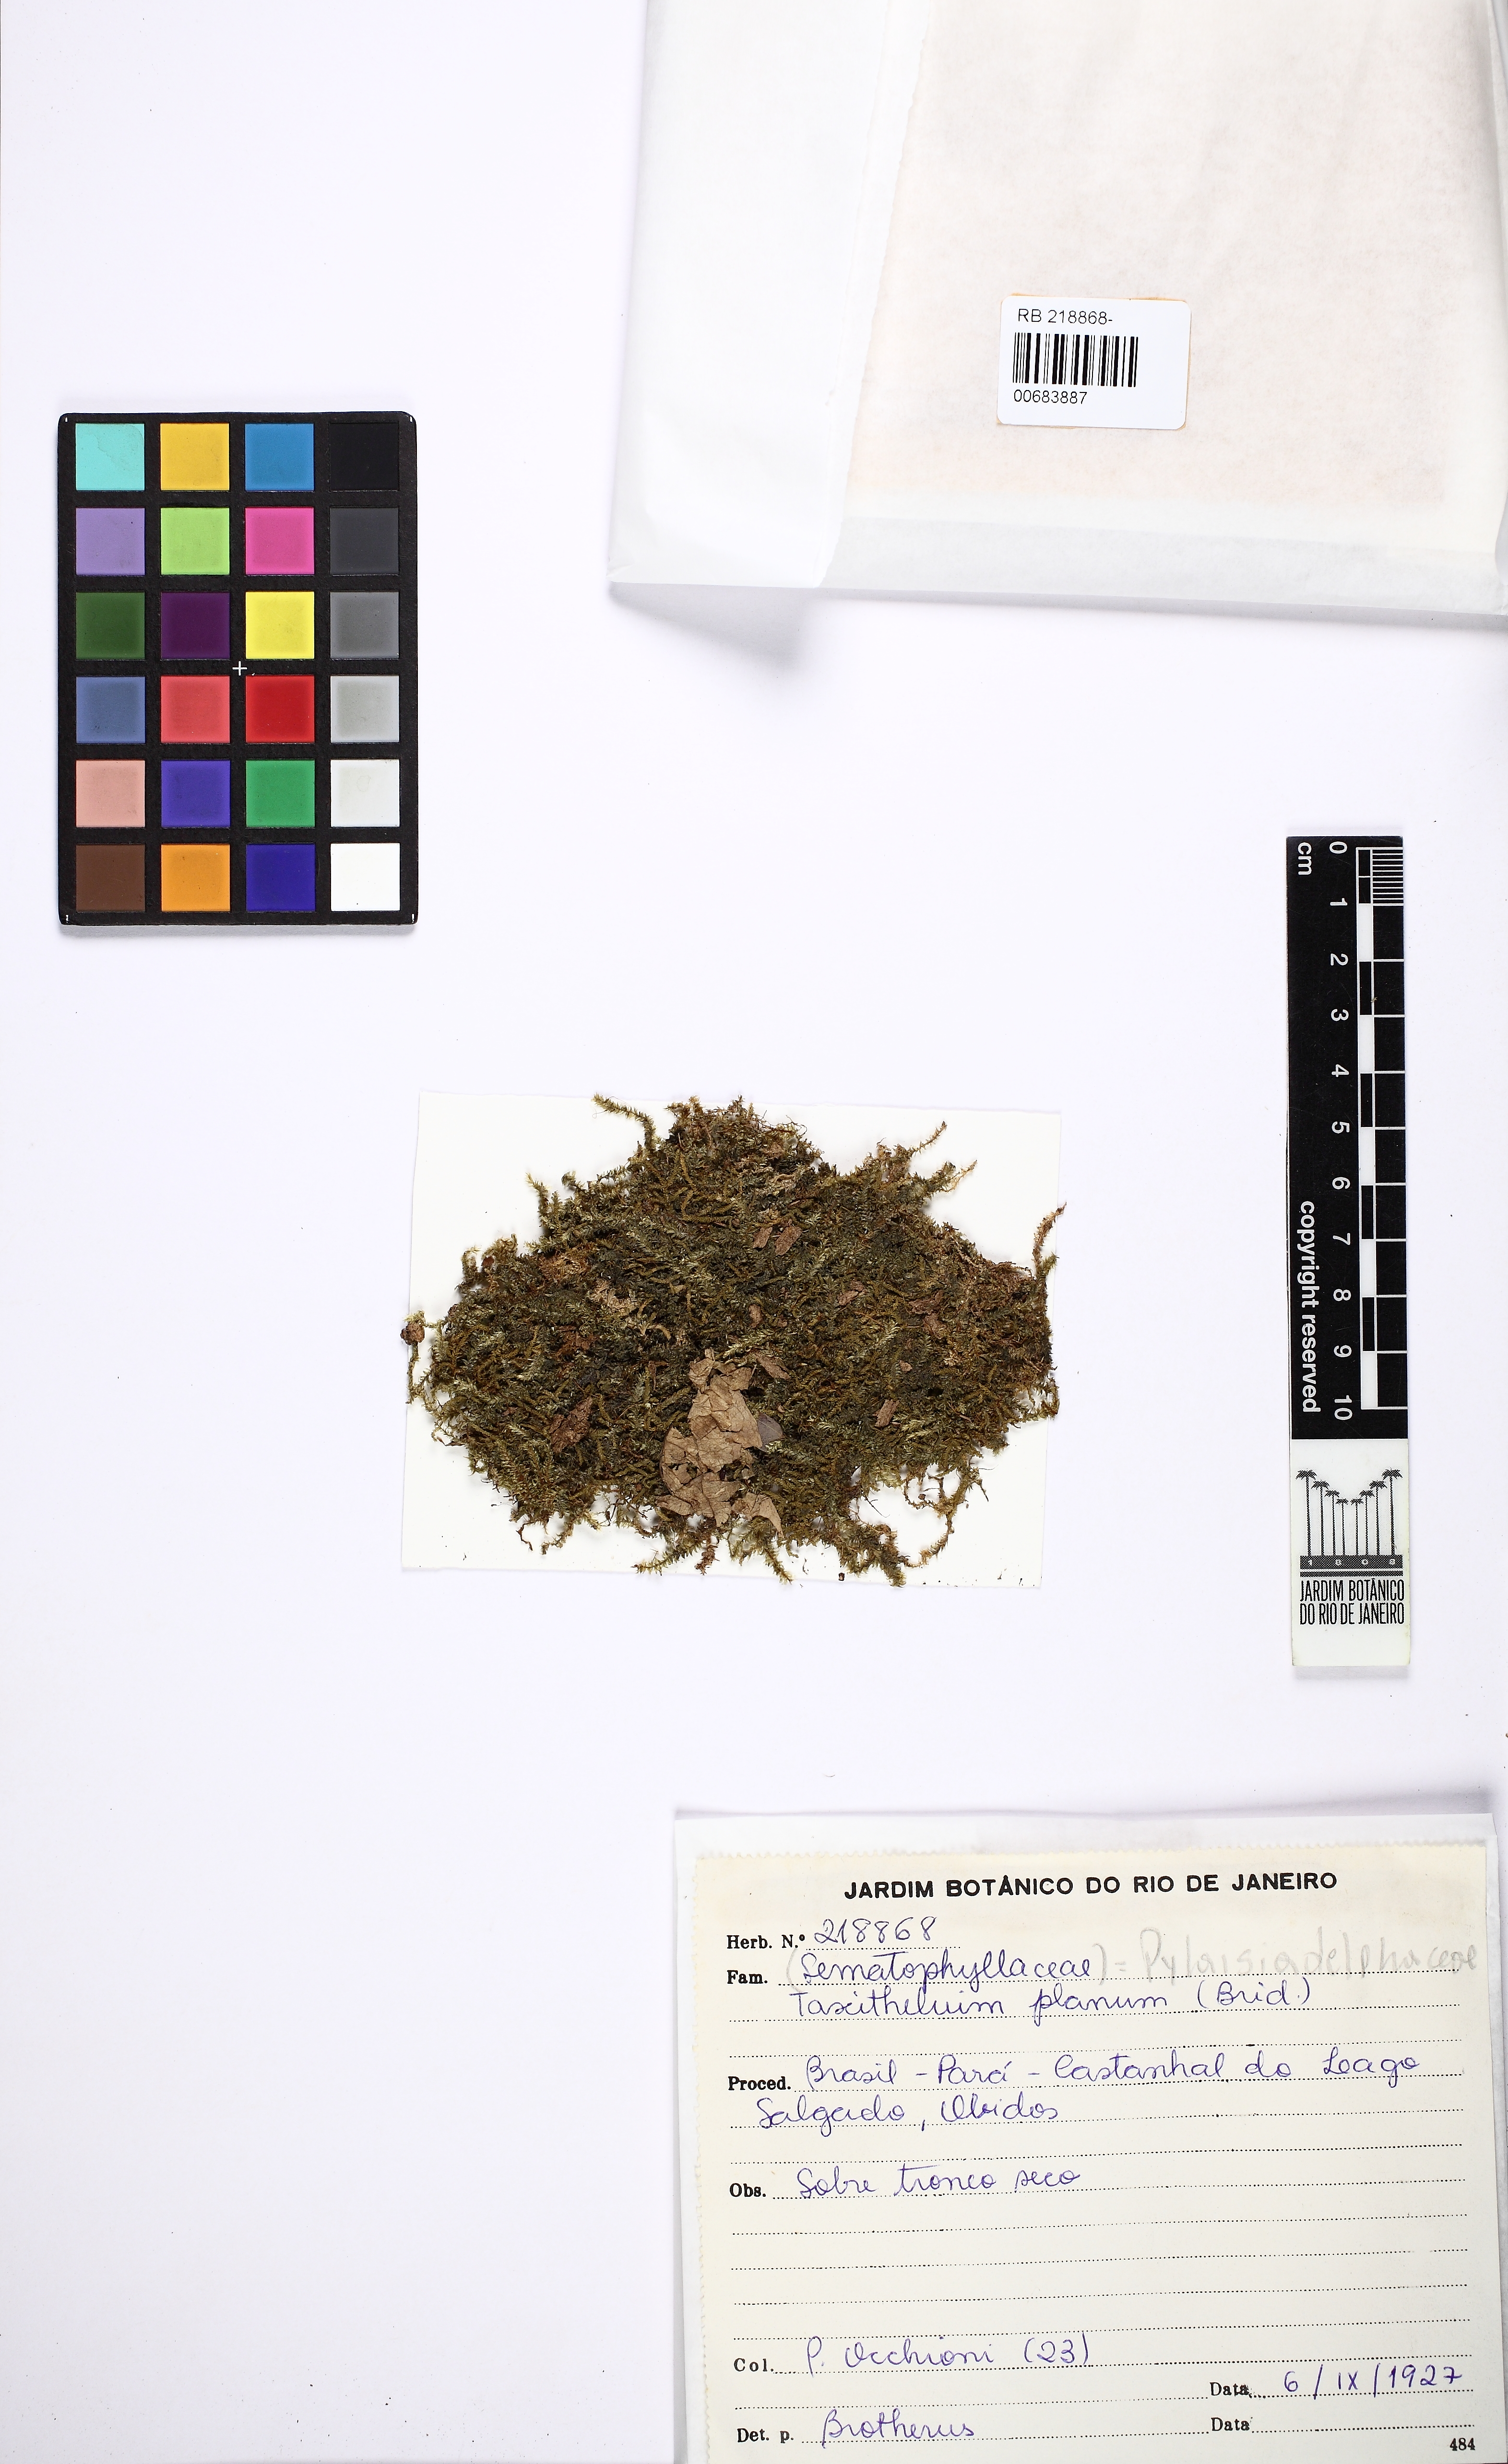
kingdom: Plantae
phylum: Bryophyta
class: Bryopsida
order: Hypnales
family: Pylaisiadelphaceae
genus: Taxithelium
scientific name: Taxithelium planum
